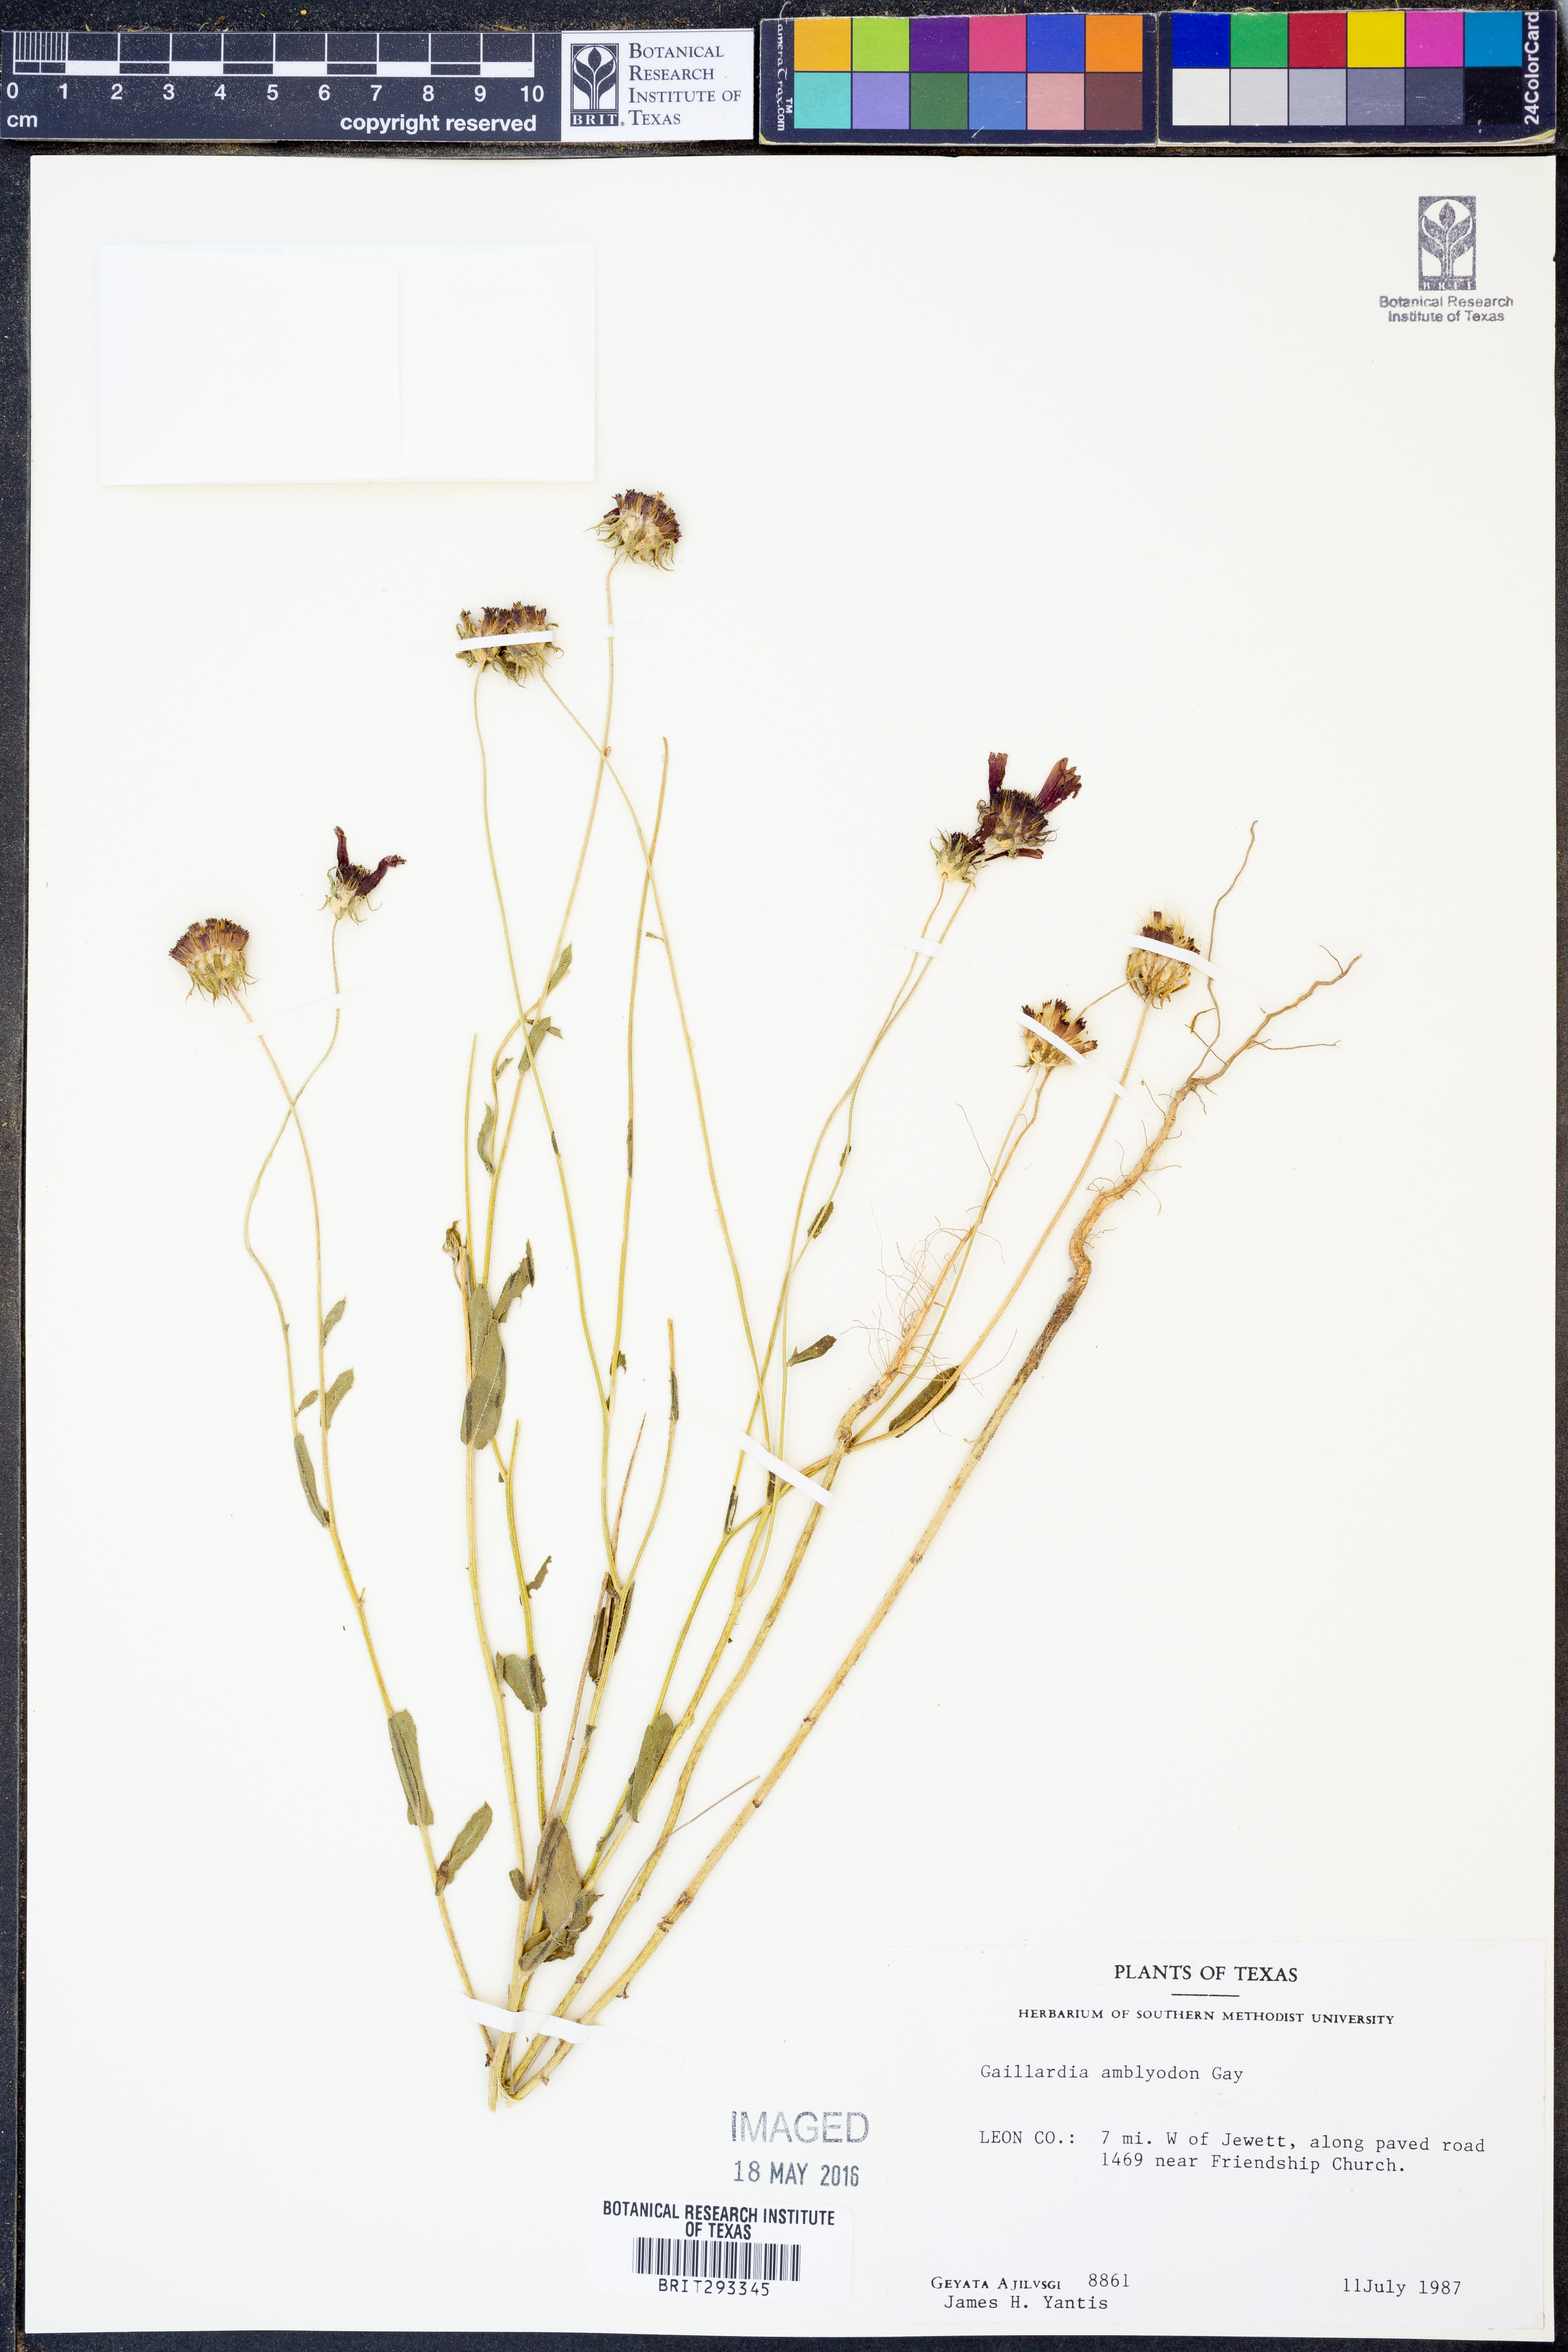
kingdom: Plantae
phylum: Tracheophyta
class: Magnoliopsida
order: Asterales
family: Asteraceae
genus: Gaillardia
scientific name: Gaillardia amblyodon
